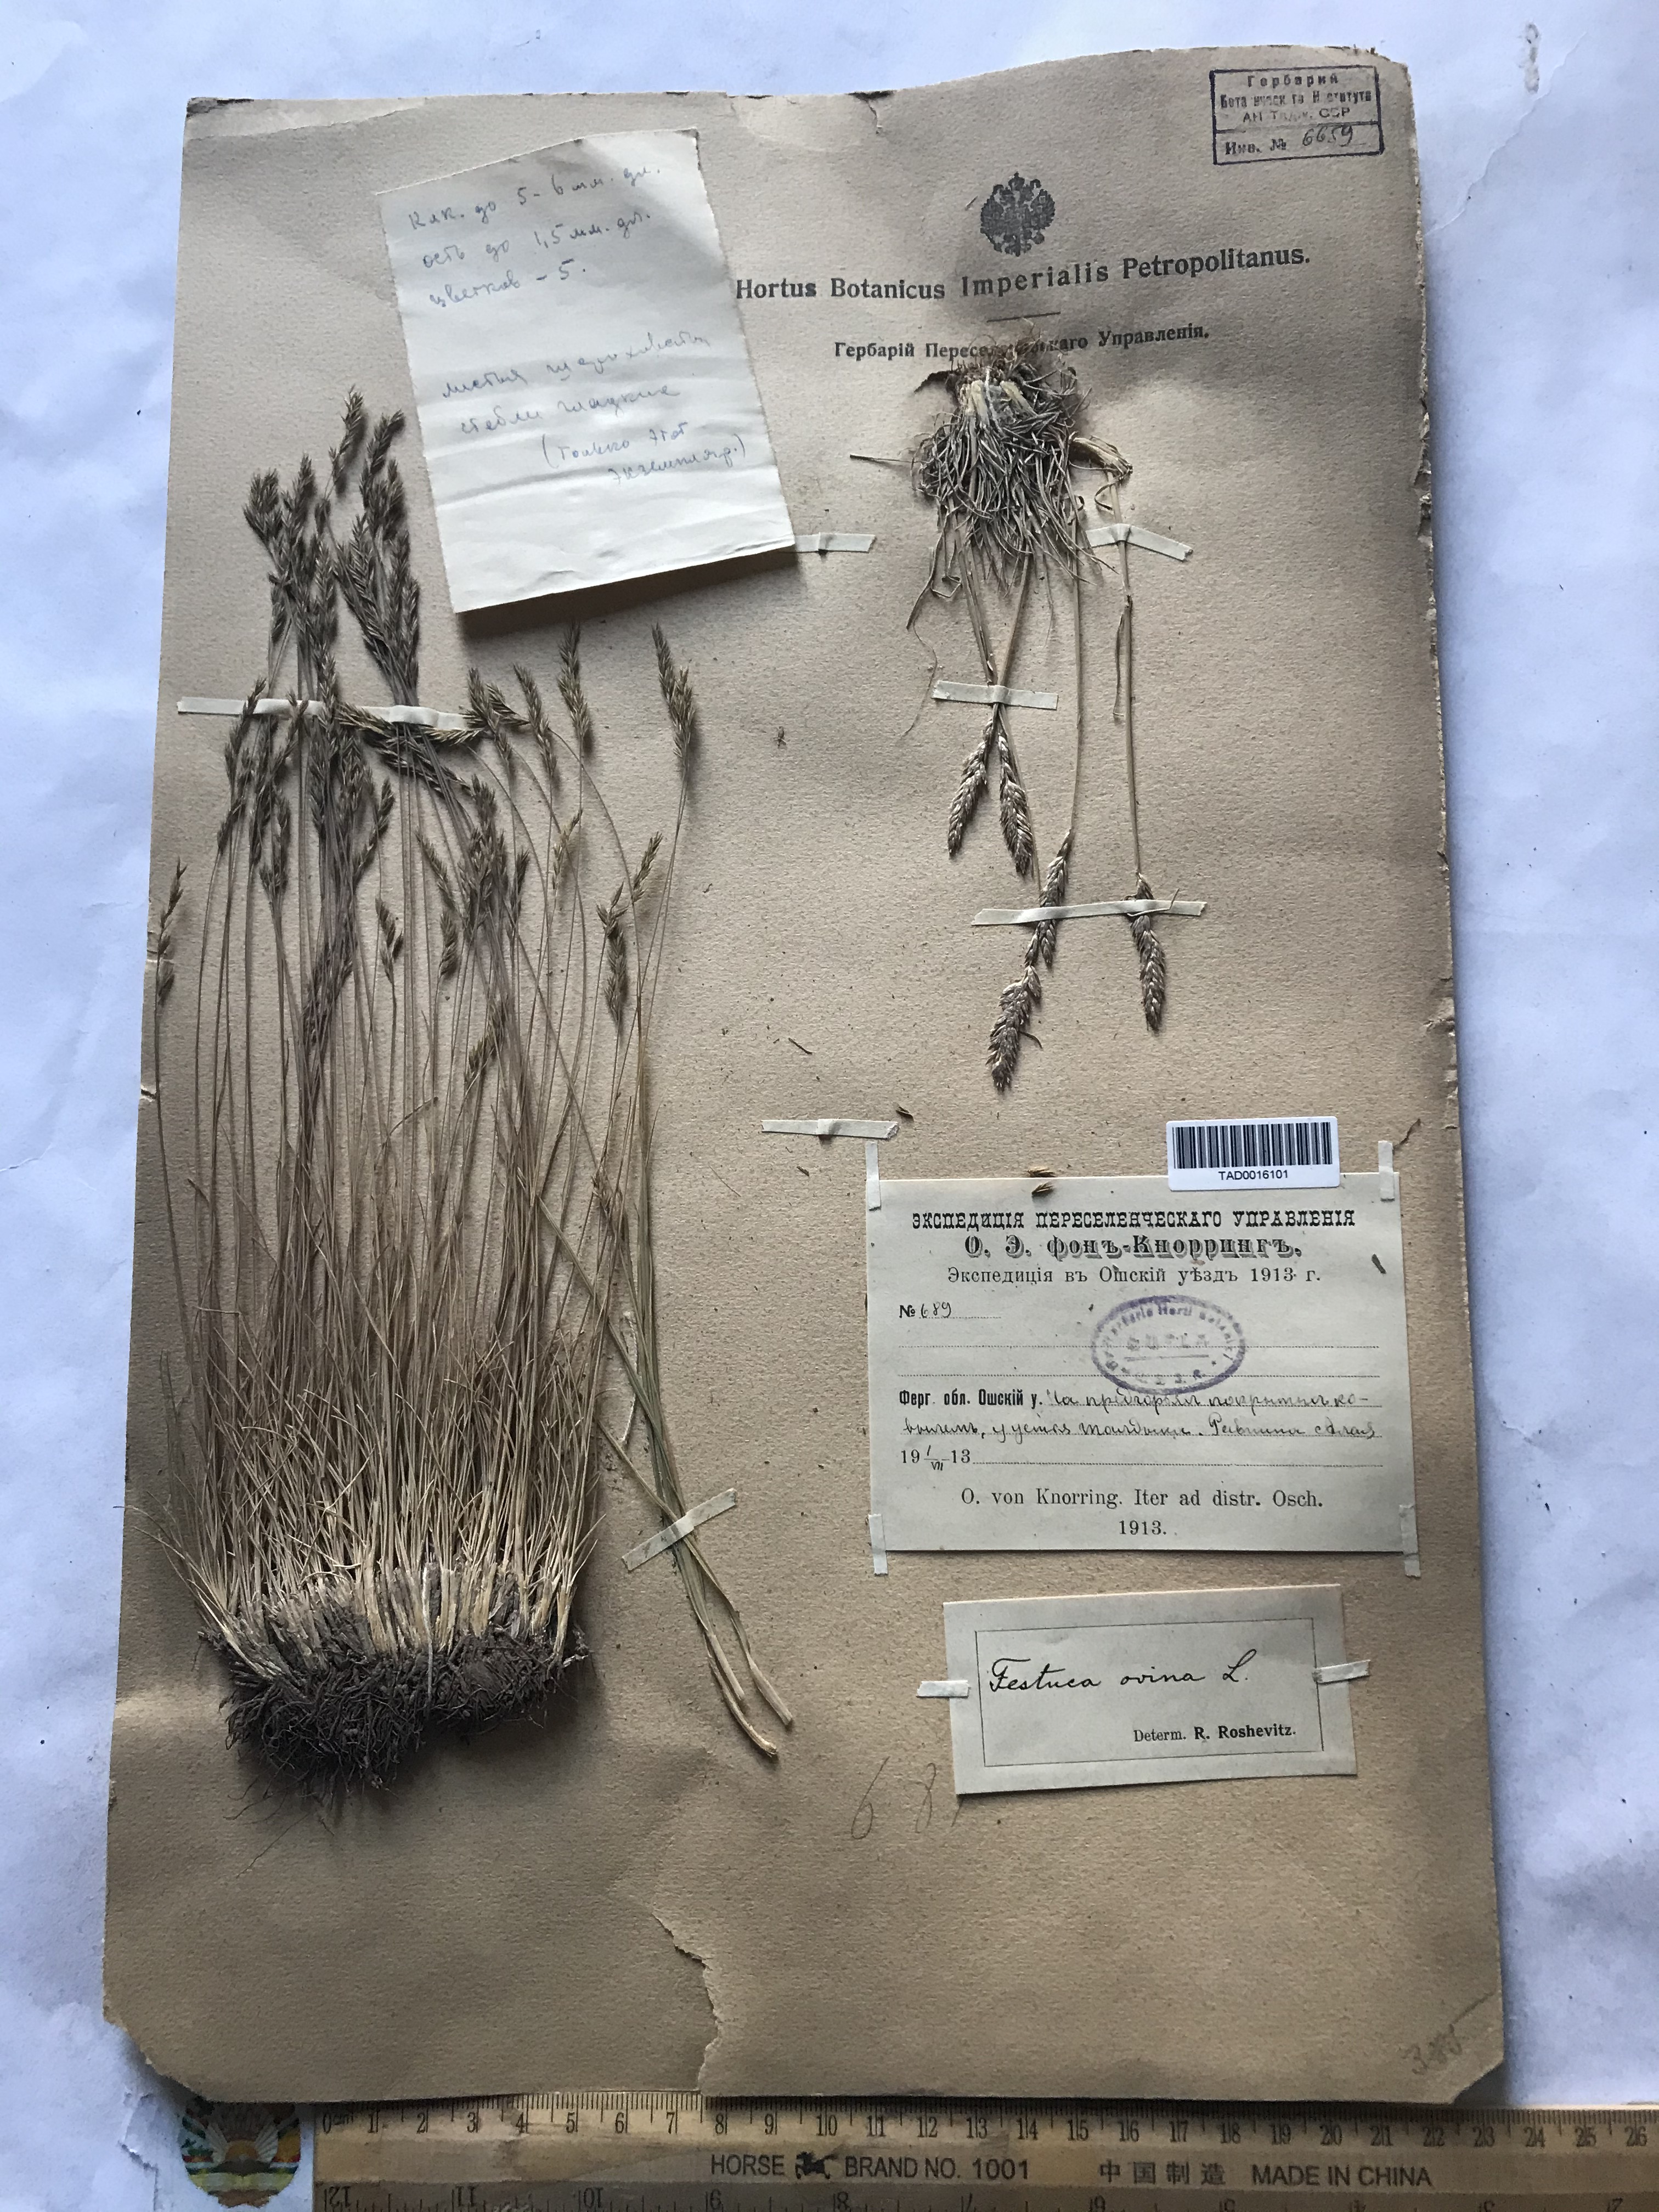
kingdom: Plantae
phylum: Tracheophyta
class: Liliopsida
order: Poales
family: Poaceae
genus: Festuca
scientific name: Festuca ovina
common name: Sheep fescue
